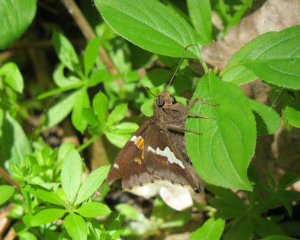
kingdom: Animalia
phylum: Arthropoda
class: Insecta
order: Lepidoptera
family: Hesperiidae
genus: Epargyreus
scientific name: Epargyreus clarus
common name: Silver-spotted Skipper
